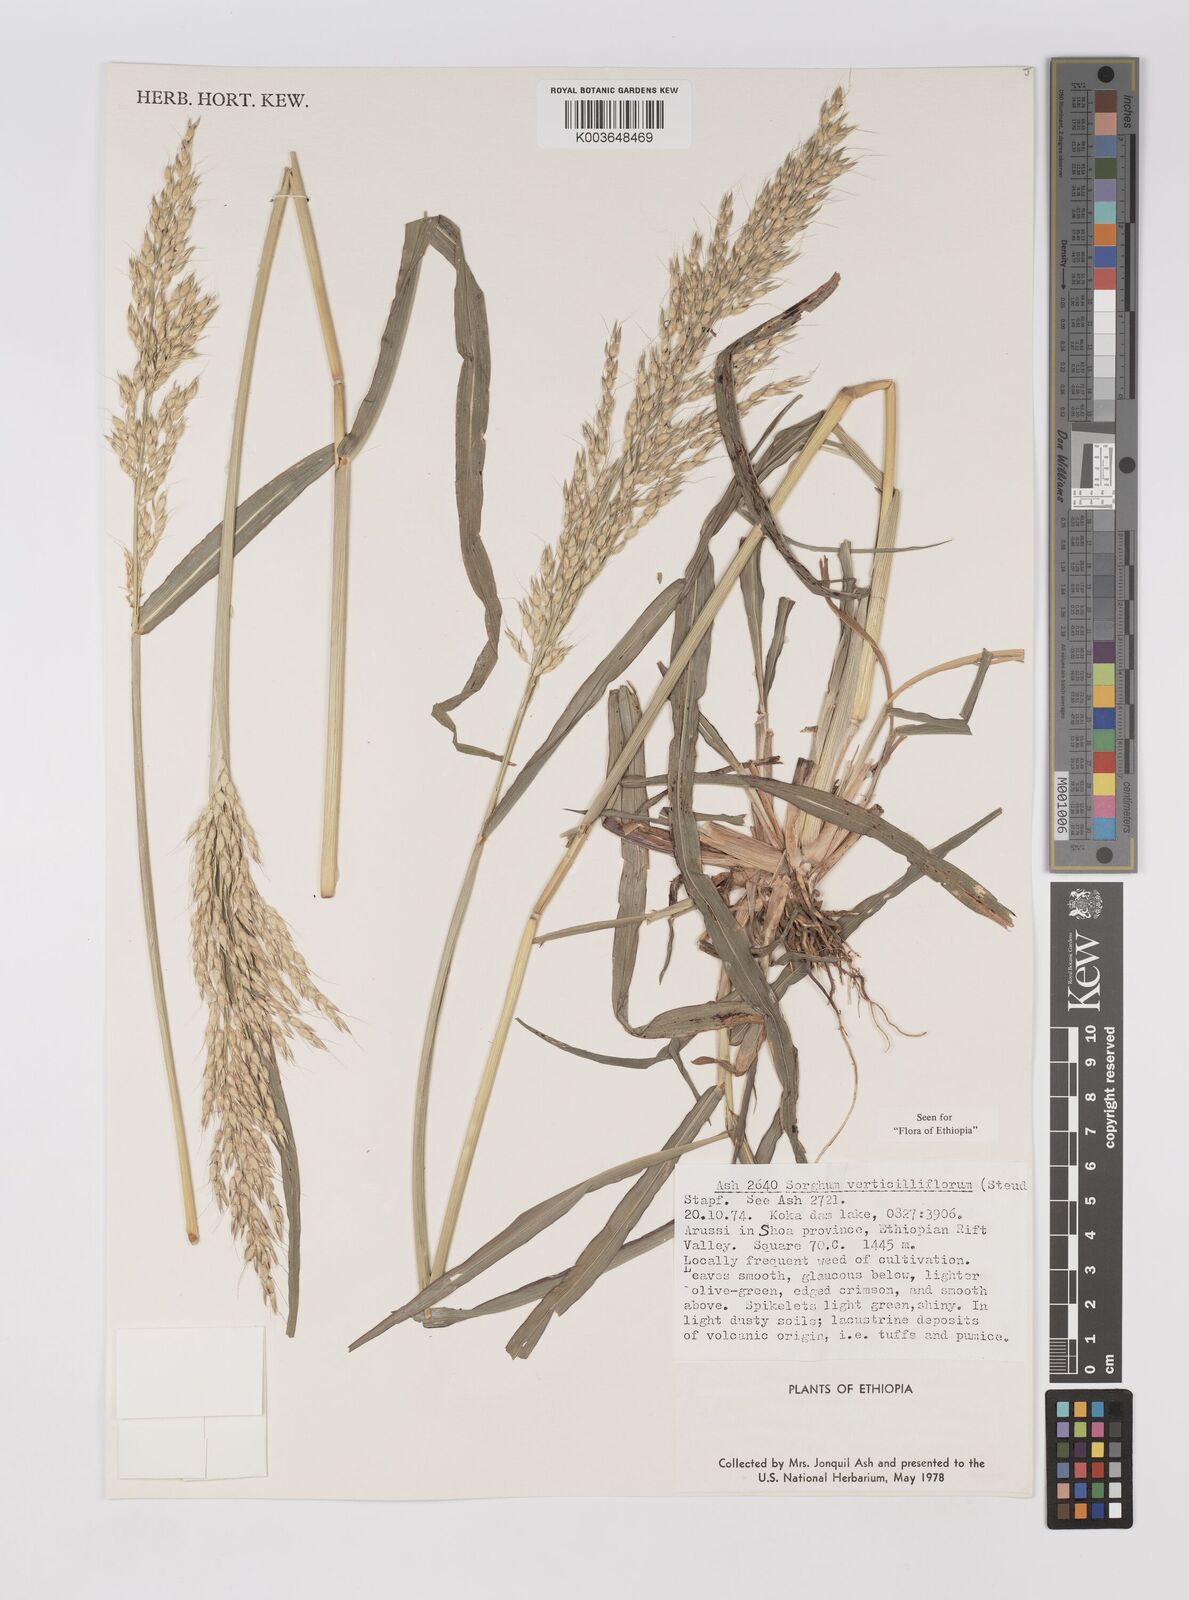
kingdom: Plantae
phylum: Tracheophyta
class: Liliopsida
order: Poales
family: Poaceae
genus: Sorghum
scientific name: Sorghum arundinaceum
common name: Sorghum
